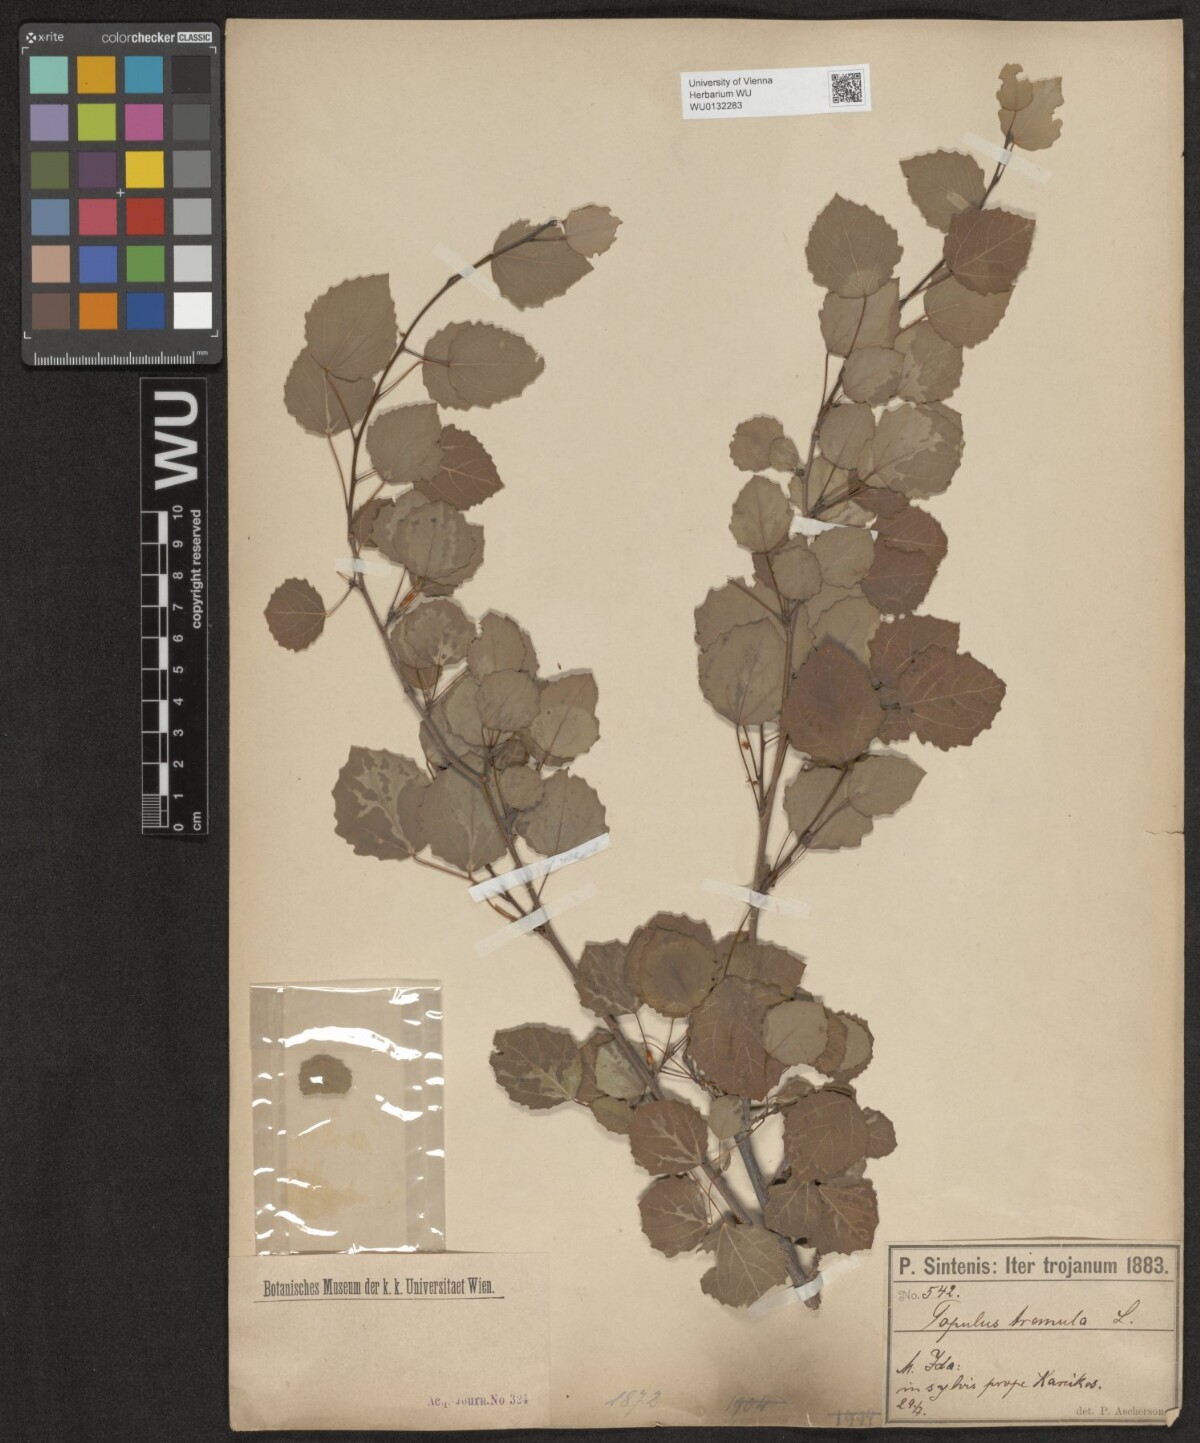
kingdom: Plantae
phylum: Tracheophyta
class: Magnoliopsida
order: Malpighiales
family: Salicaceae
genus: Populus
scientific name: Populus tremula
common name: European aspen
